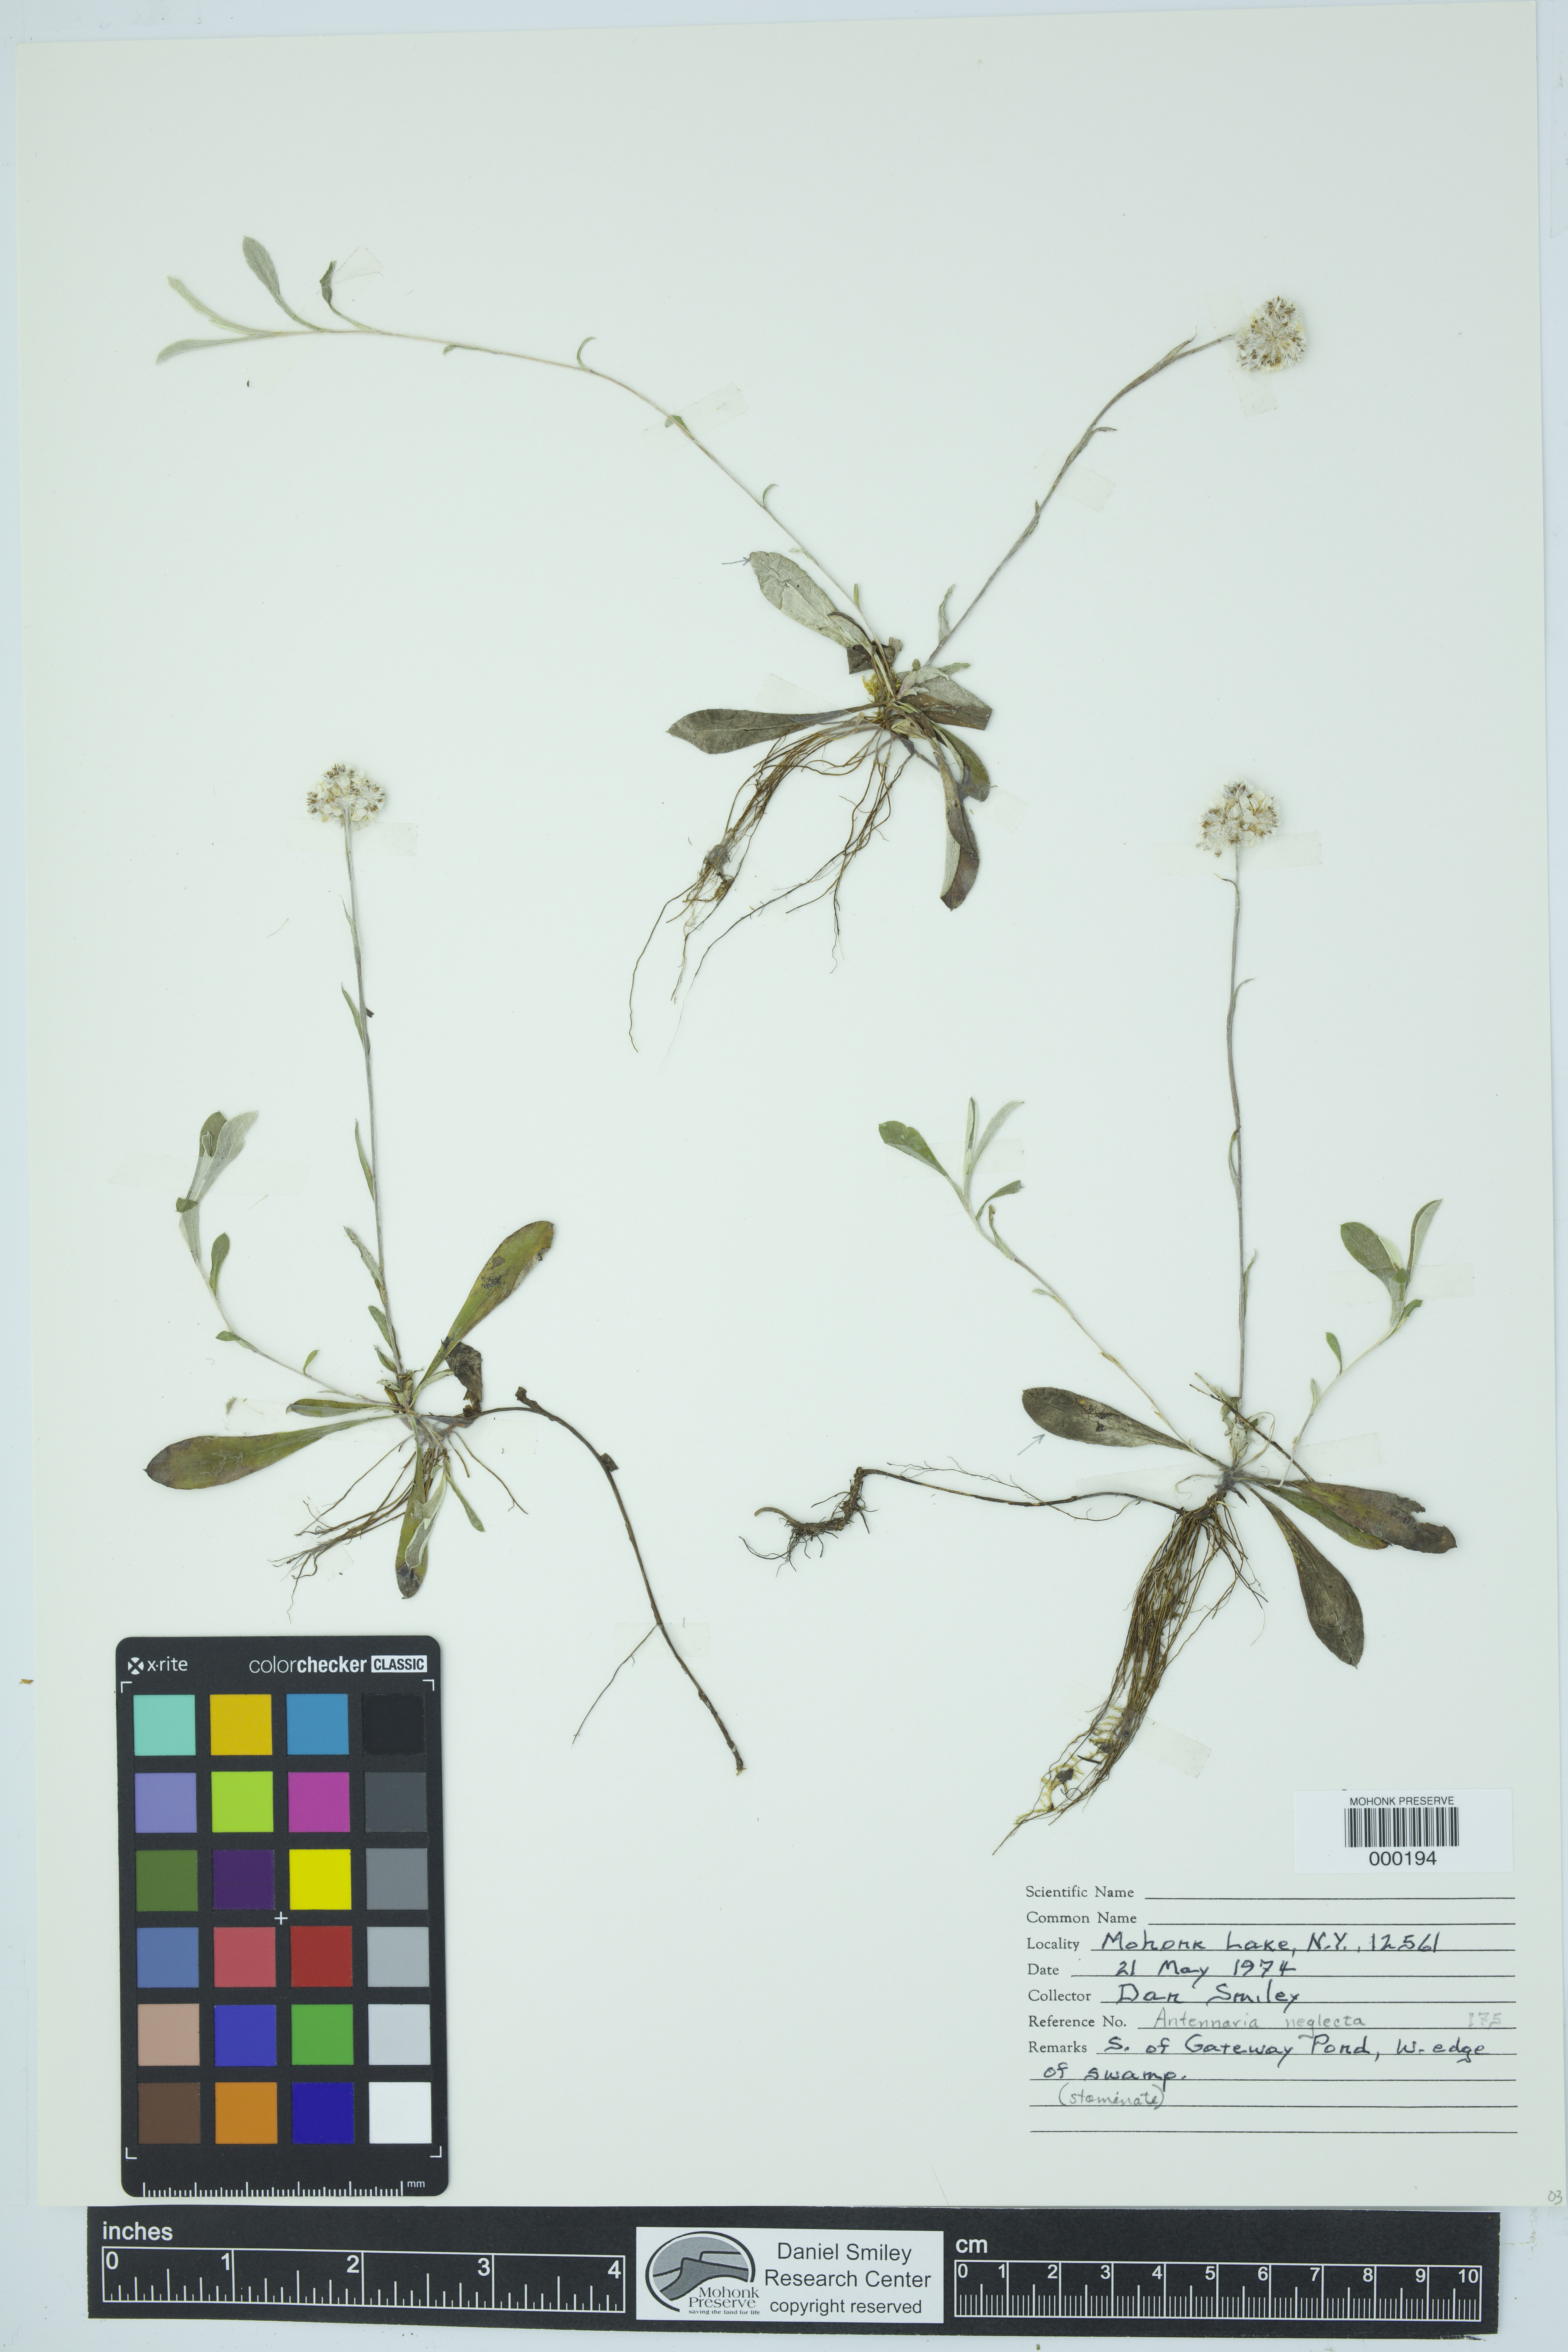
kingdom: Plantae
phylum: Tracheophyta
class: Magnoliopsida
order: Asterales
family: Asteraceae
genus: Antennaria
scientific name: Antennaria neglecta
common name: Field pussytoes
